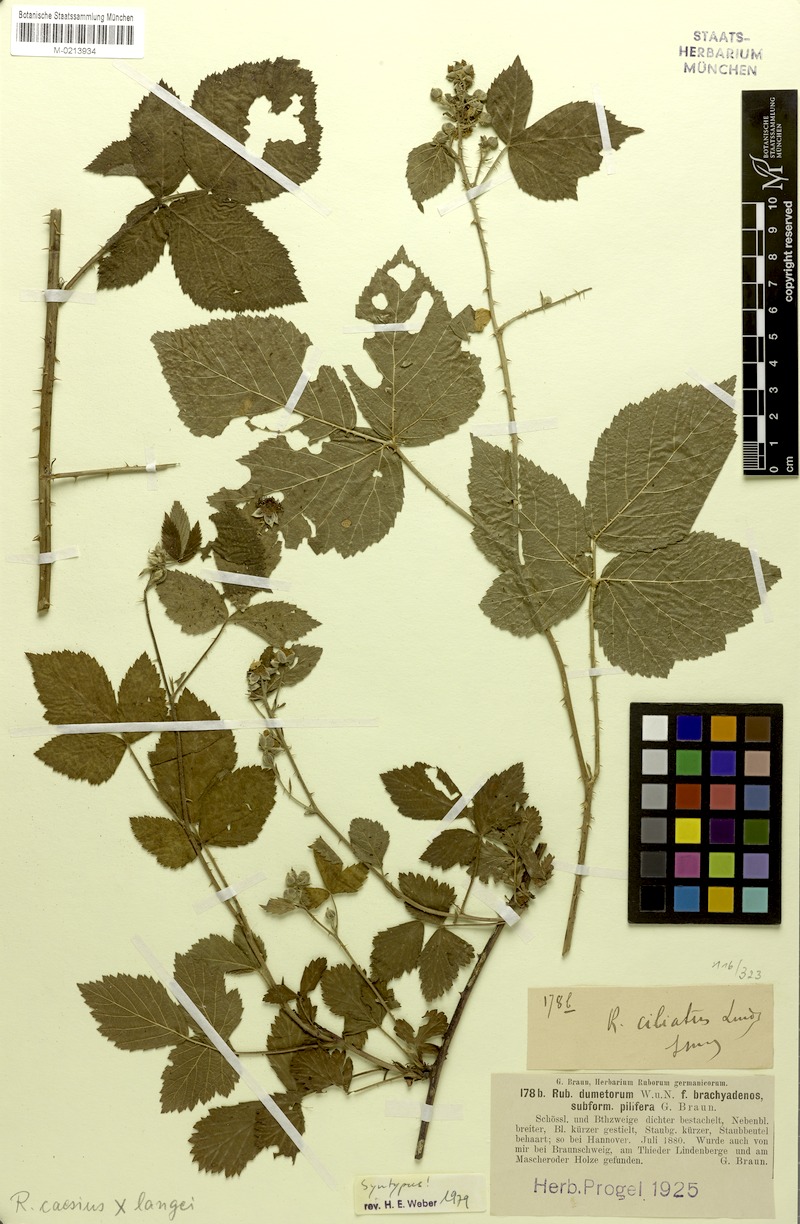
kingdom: Plantae
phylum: Tracheophyta
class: Magnoliopsida
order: Rosales
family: Rosaceae
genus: Rubus
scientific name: Rubus camptostachys
